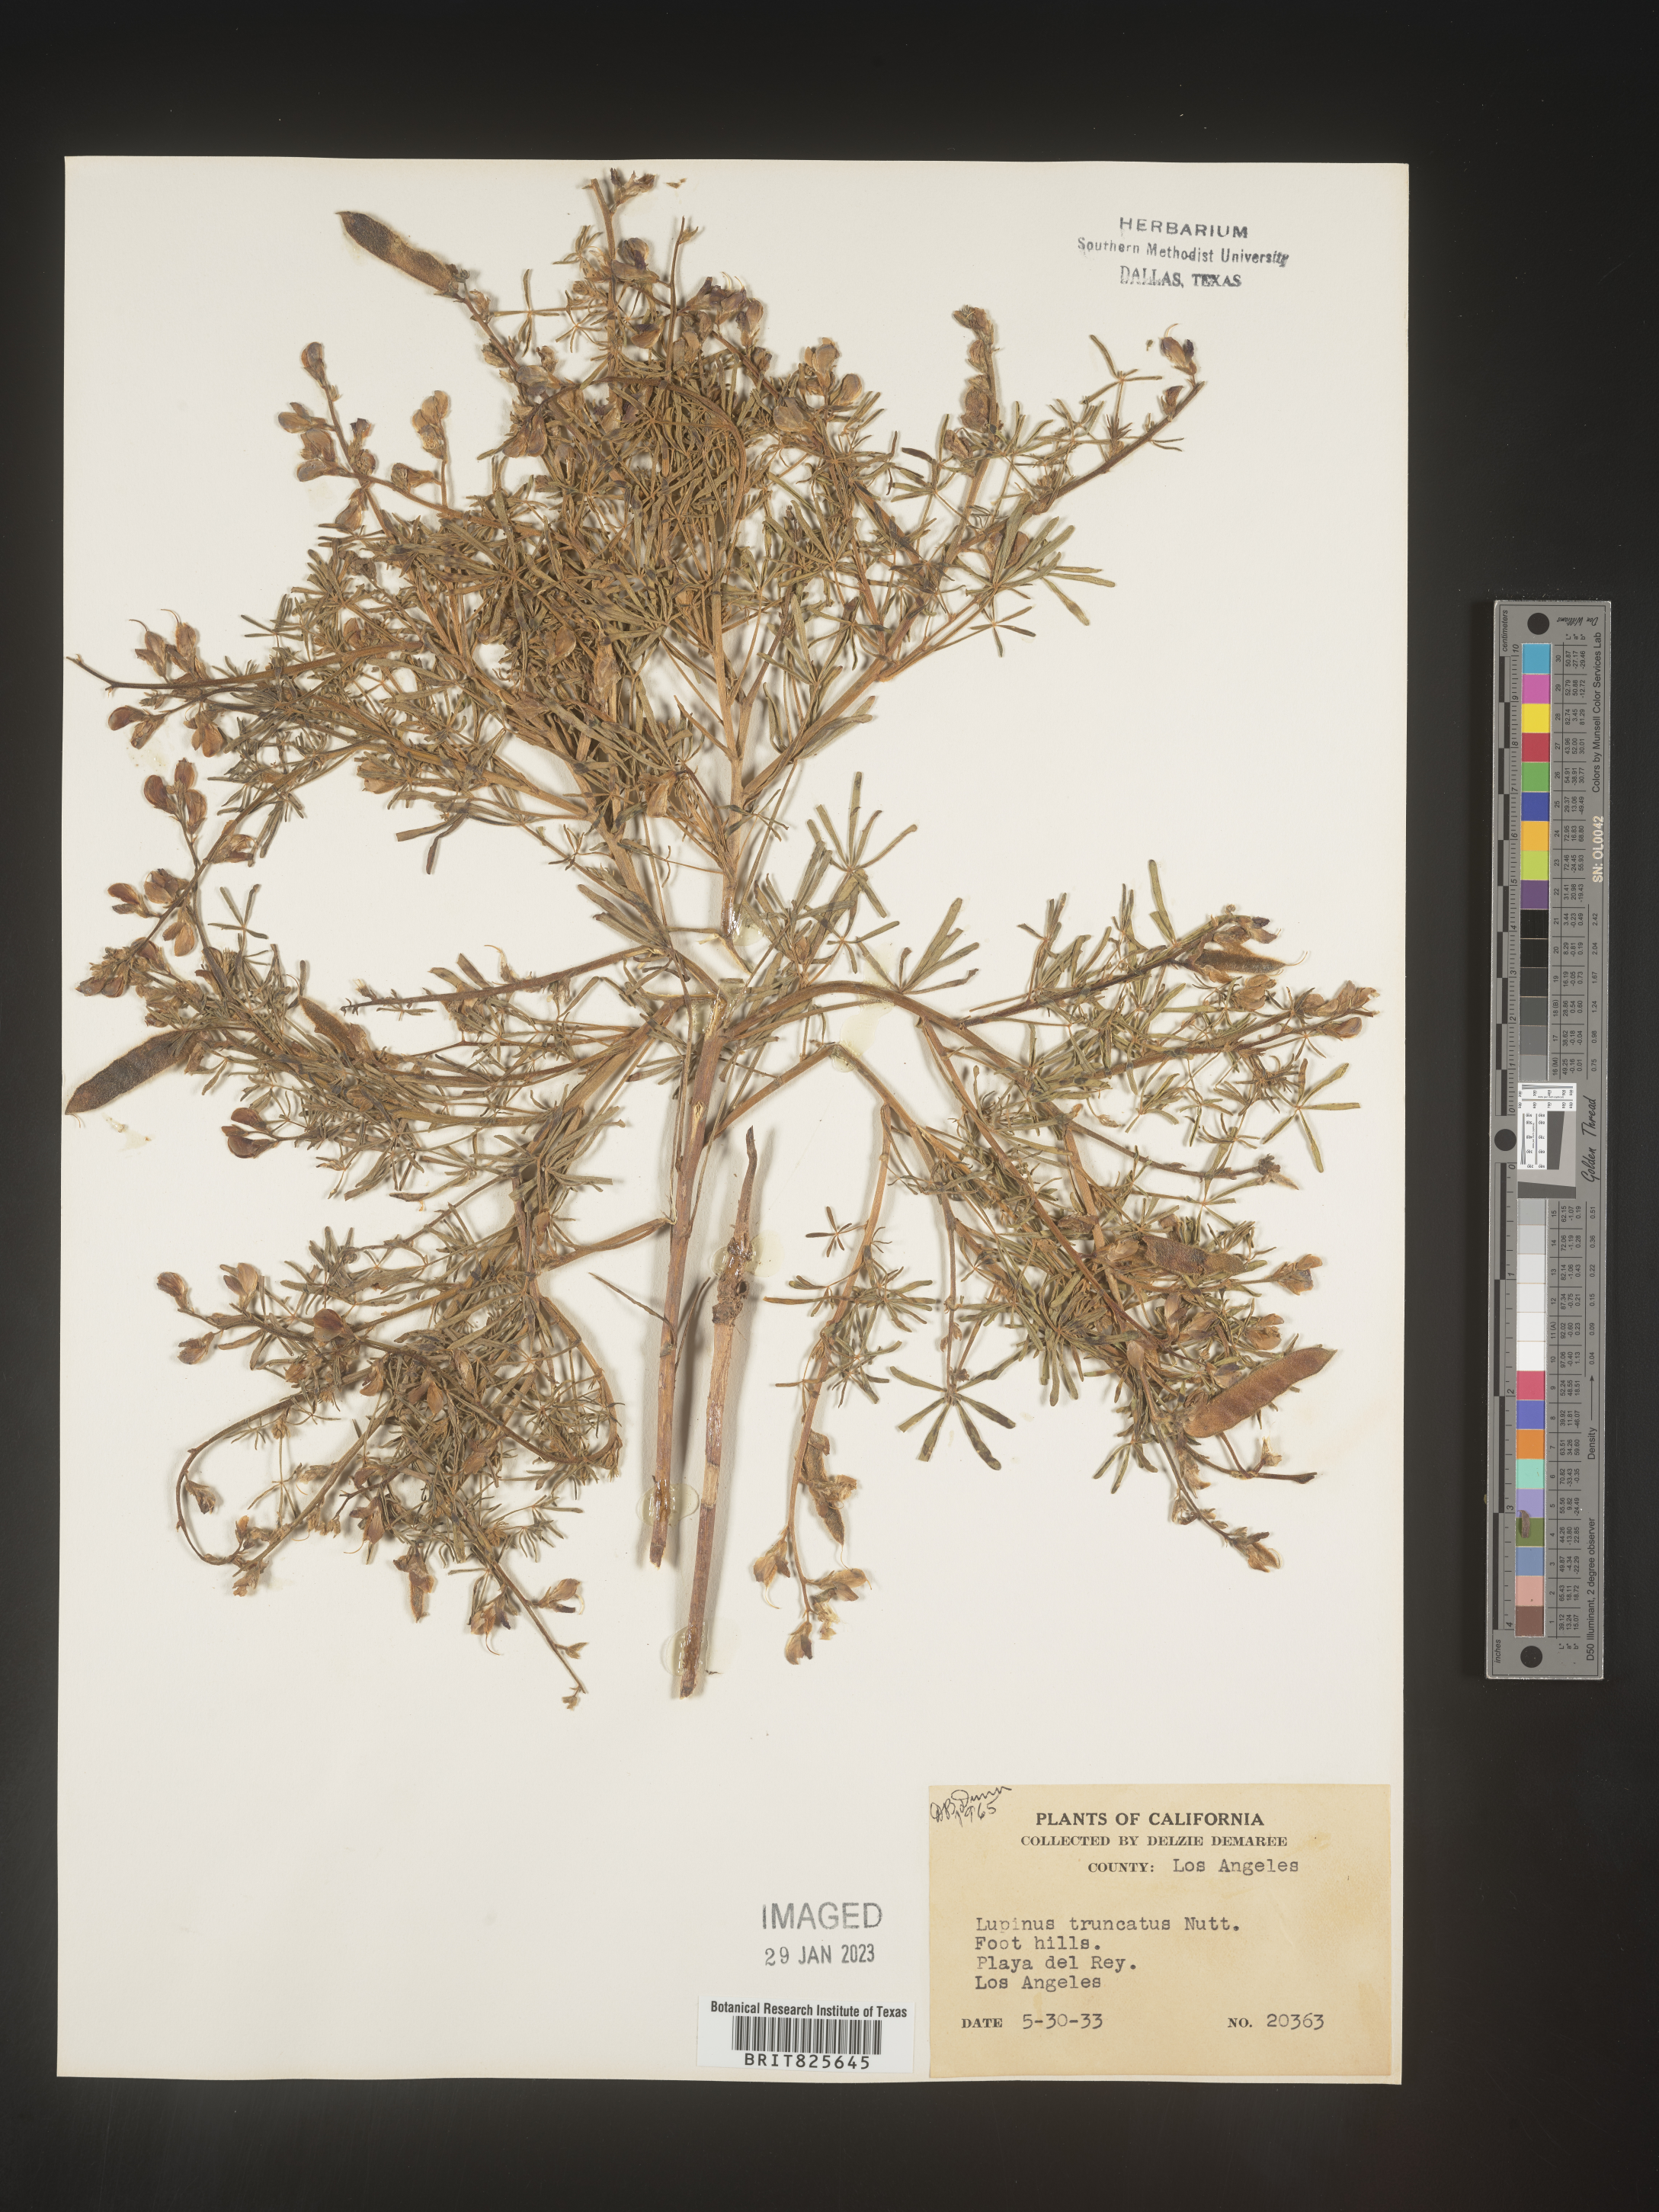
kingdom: Plantae
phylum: Tracheophyta
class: Magnoliopsida
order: Fabales
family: Fabaceae
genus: Lupinus
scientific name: Lupinus
